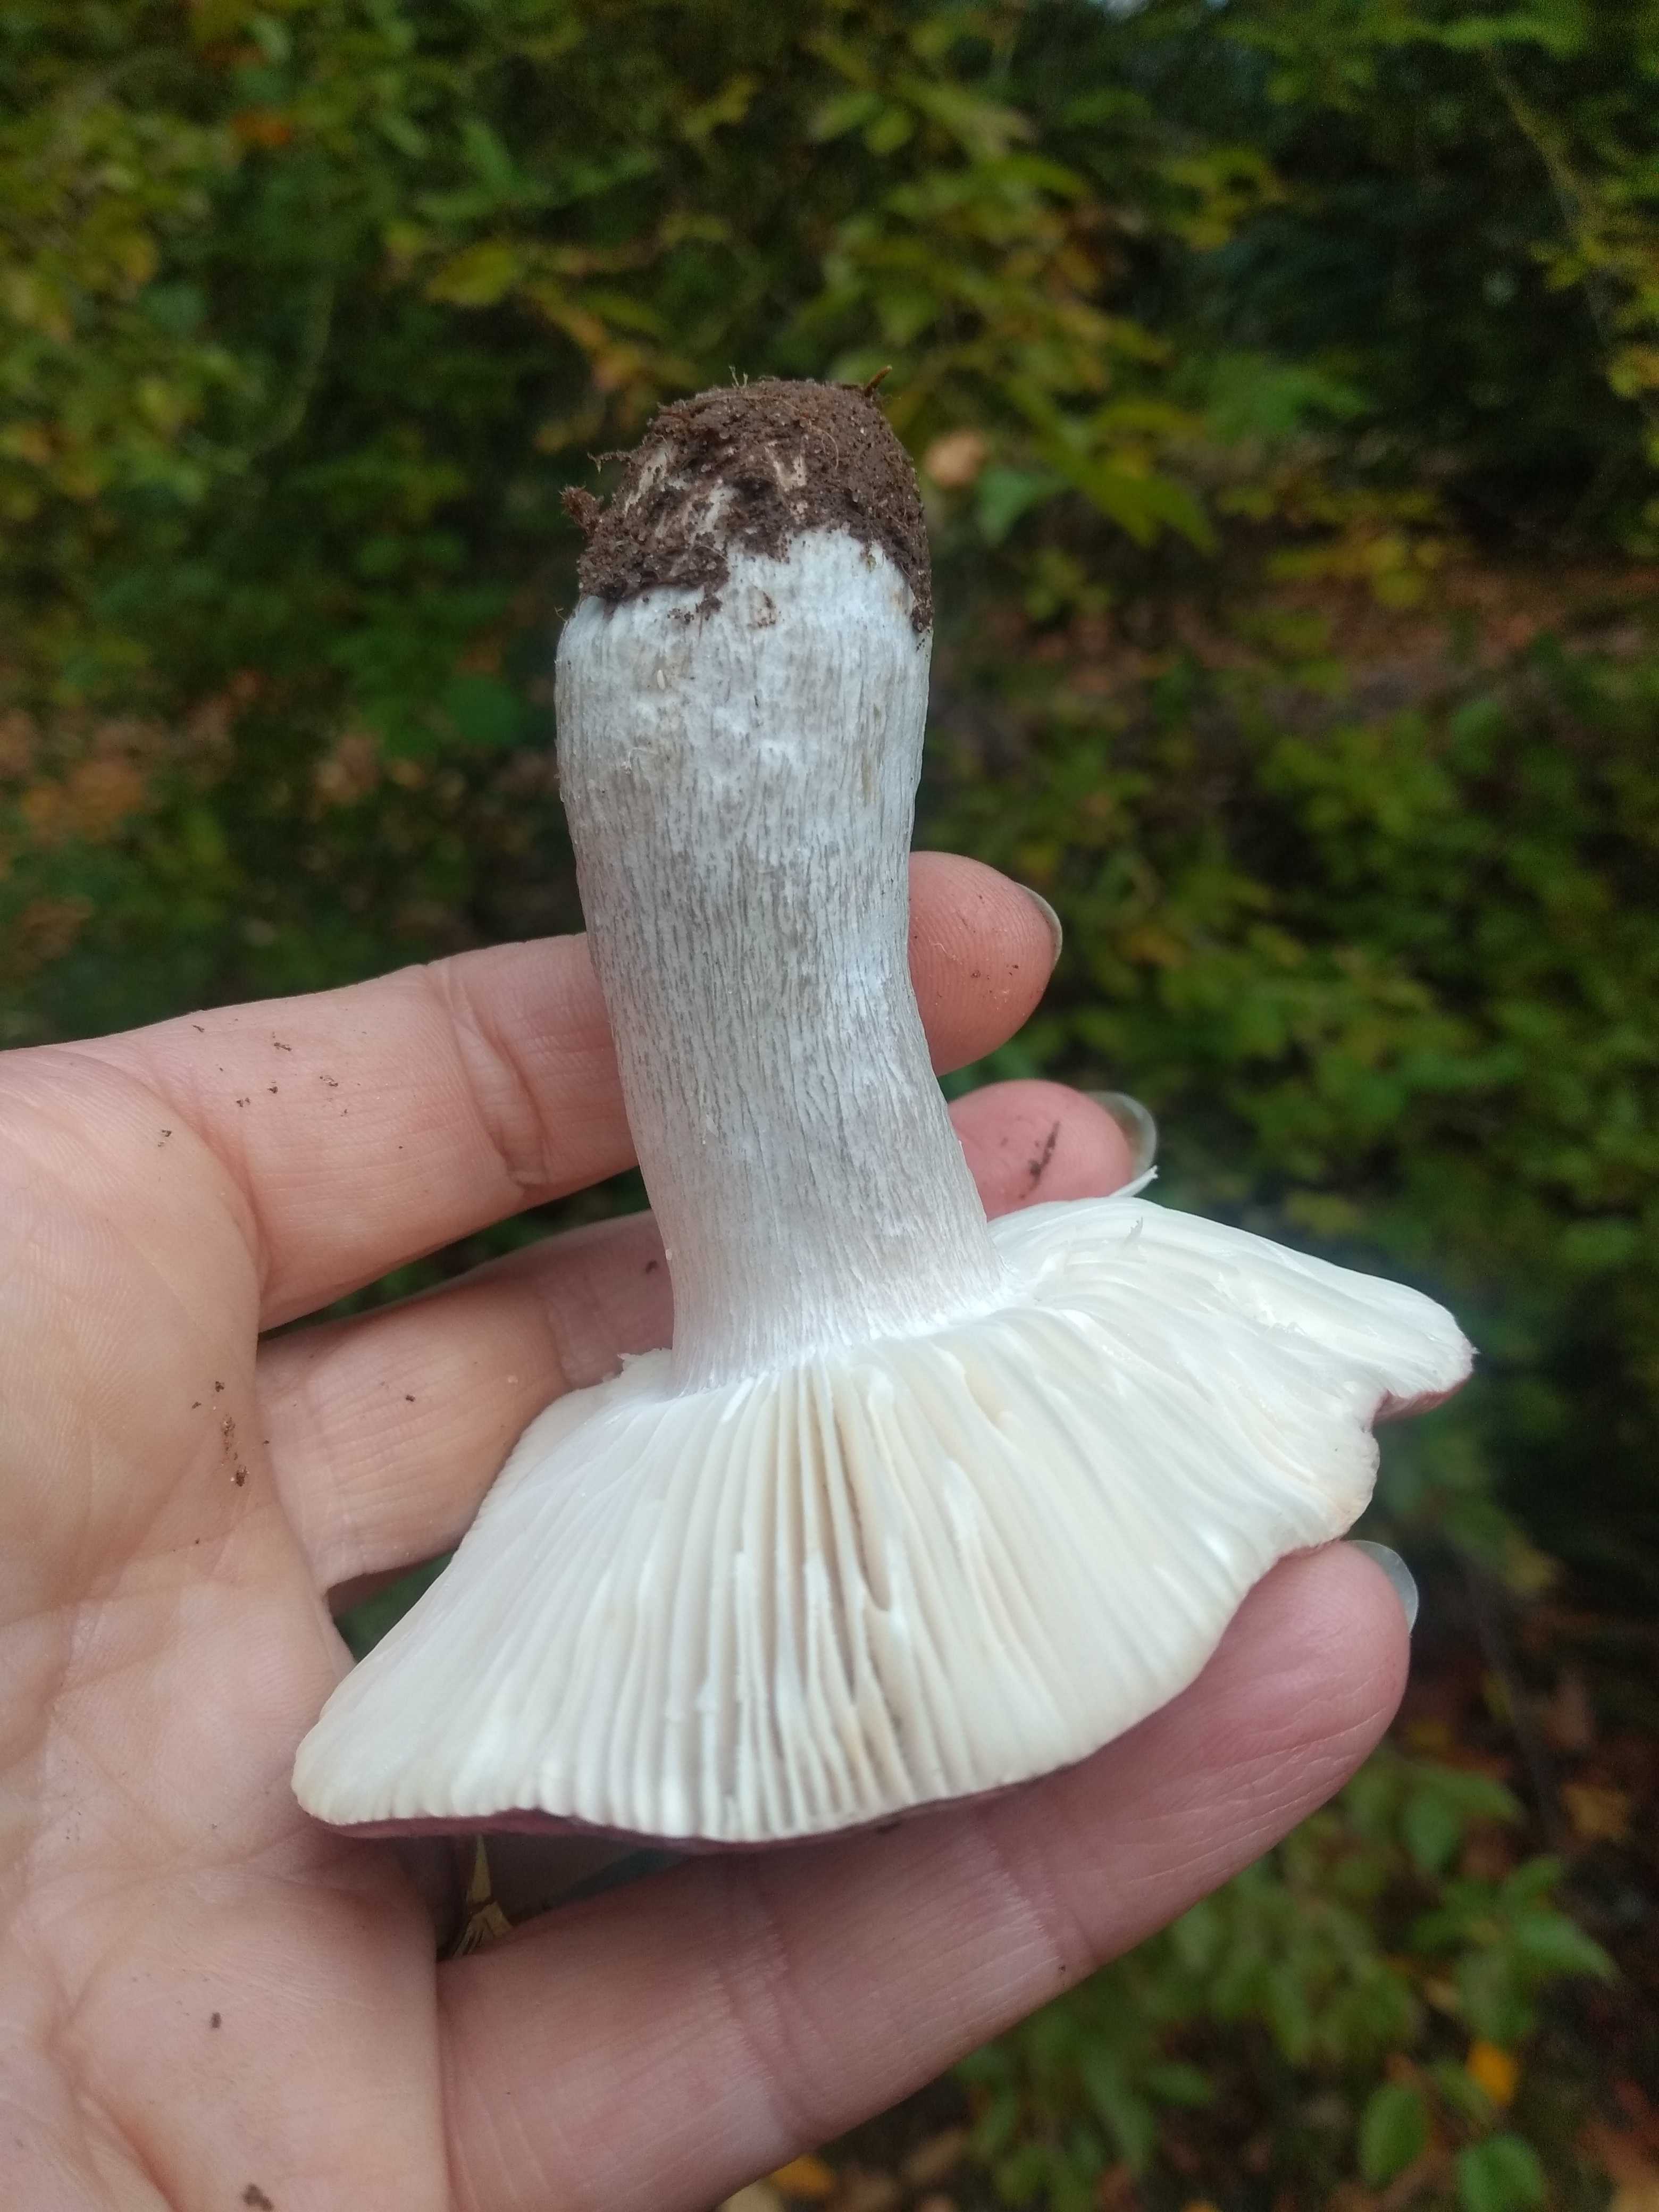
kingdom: Fungi
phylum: Basidiomycota
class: Agaricomycetes
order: Russulales
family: Russulaceae
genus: Russula
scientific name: Russula atropurpurea
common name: purpurbroget skørhat
